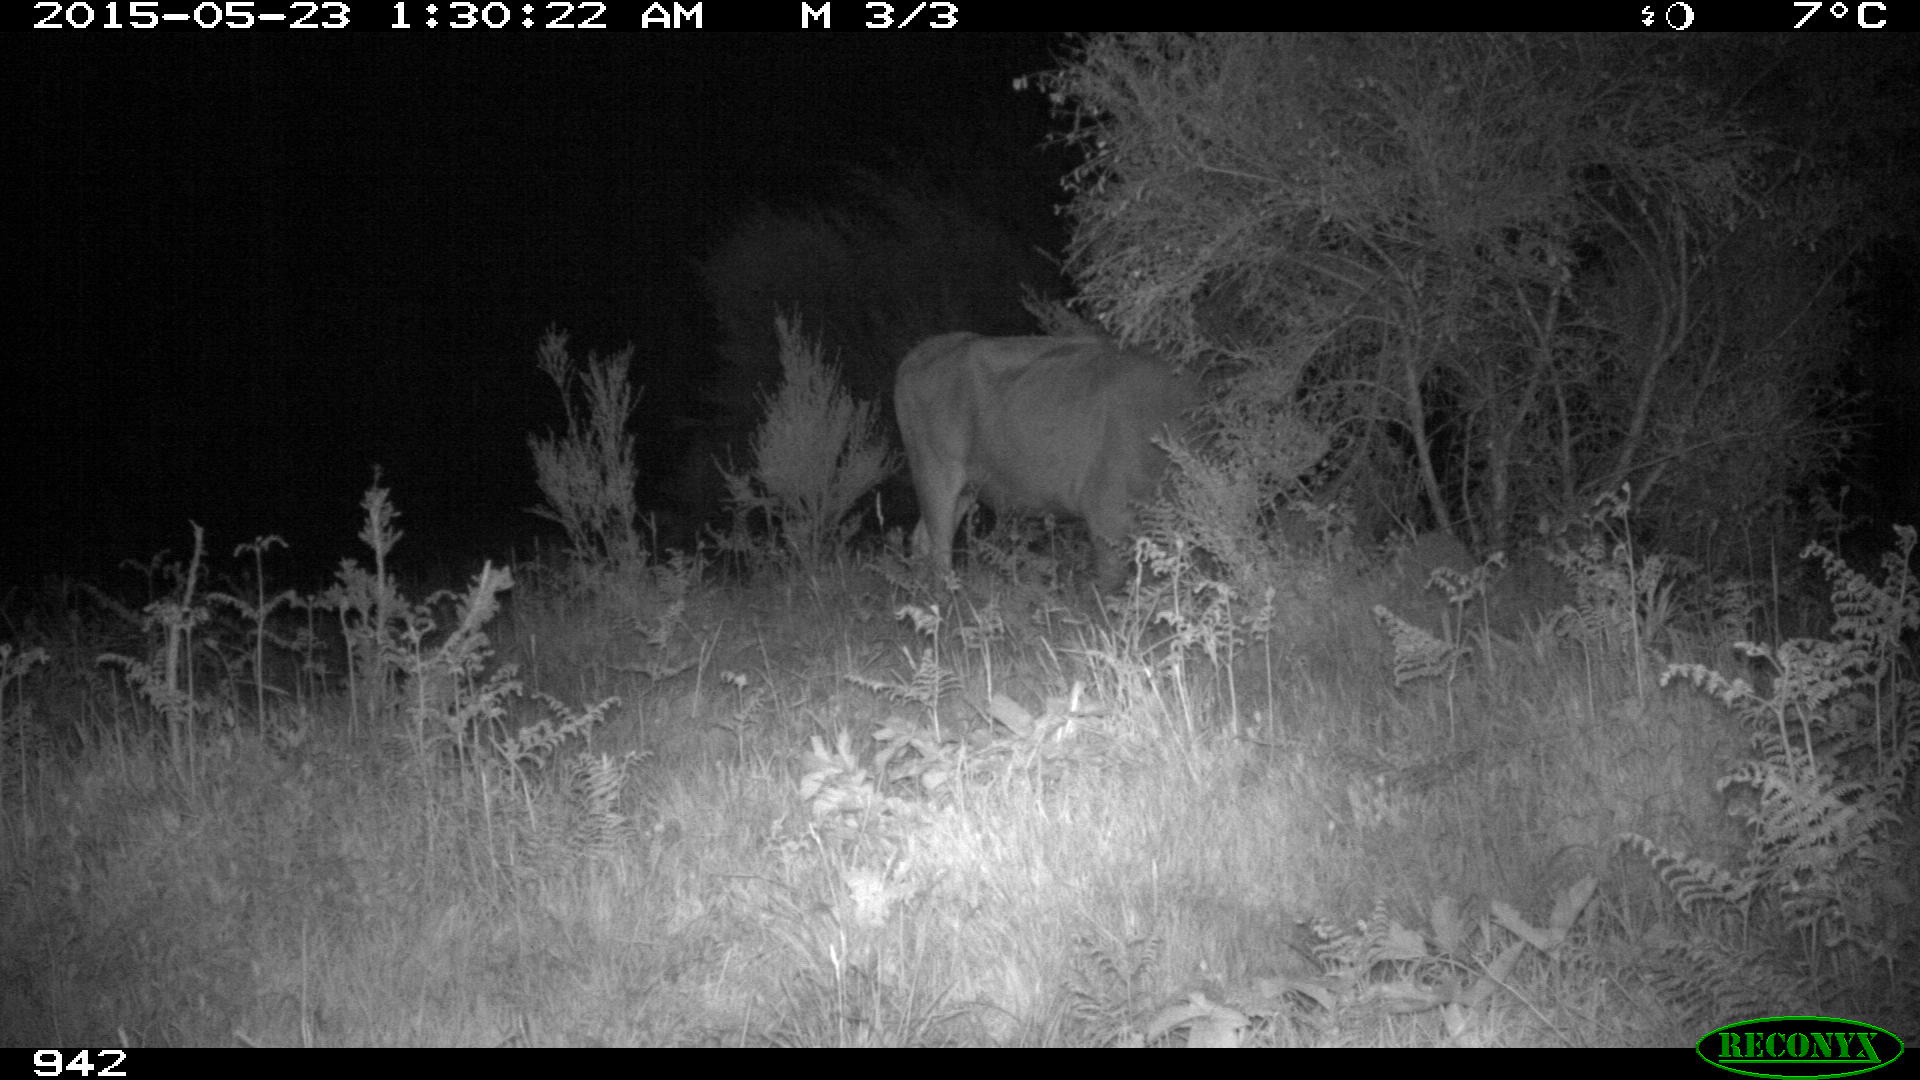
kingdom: Animalia
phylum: Chordata
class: Mammalia
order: Artiodactyla
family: Bovidae
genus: Bos
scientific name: Bos taurus
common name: Domesticated cattle
